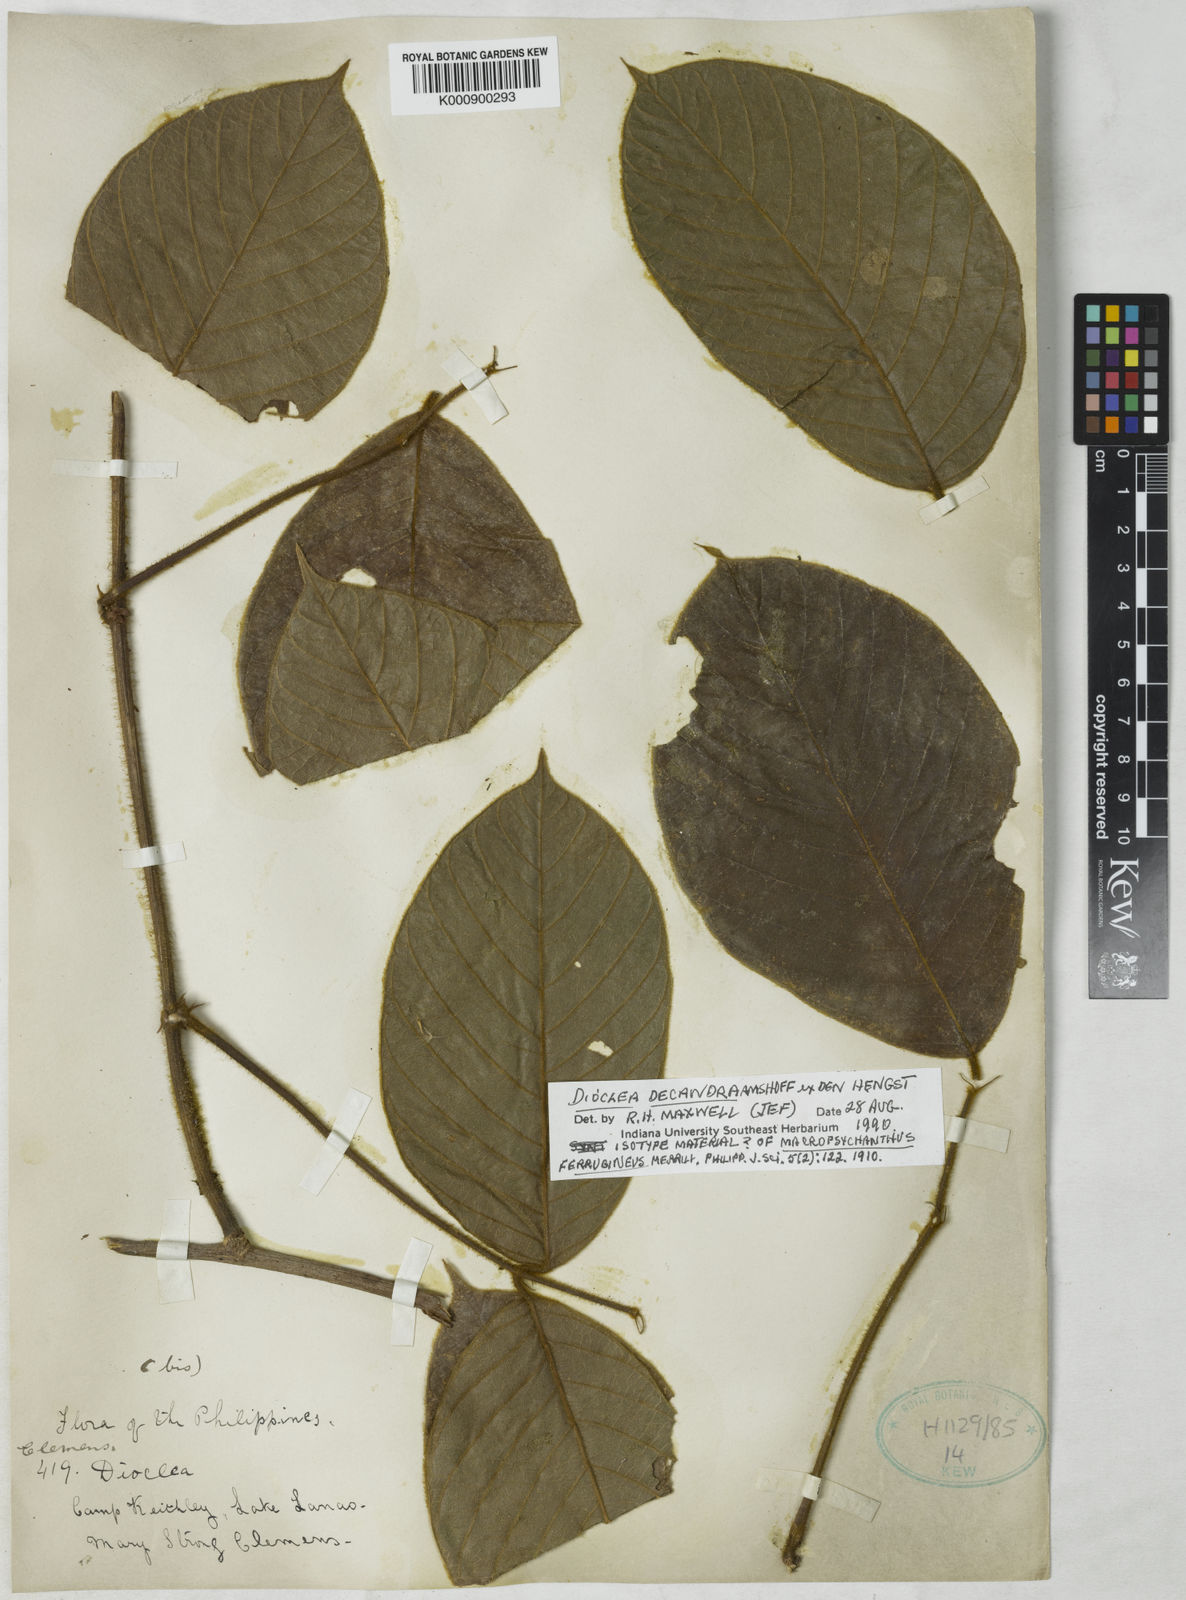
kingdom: Plantae
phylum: Tracheophyta
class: Magnoliopsida
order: Fabales
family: Fabaceae
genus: Macropsychanthus
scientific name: Macropsychanthus ferrugineus
